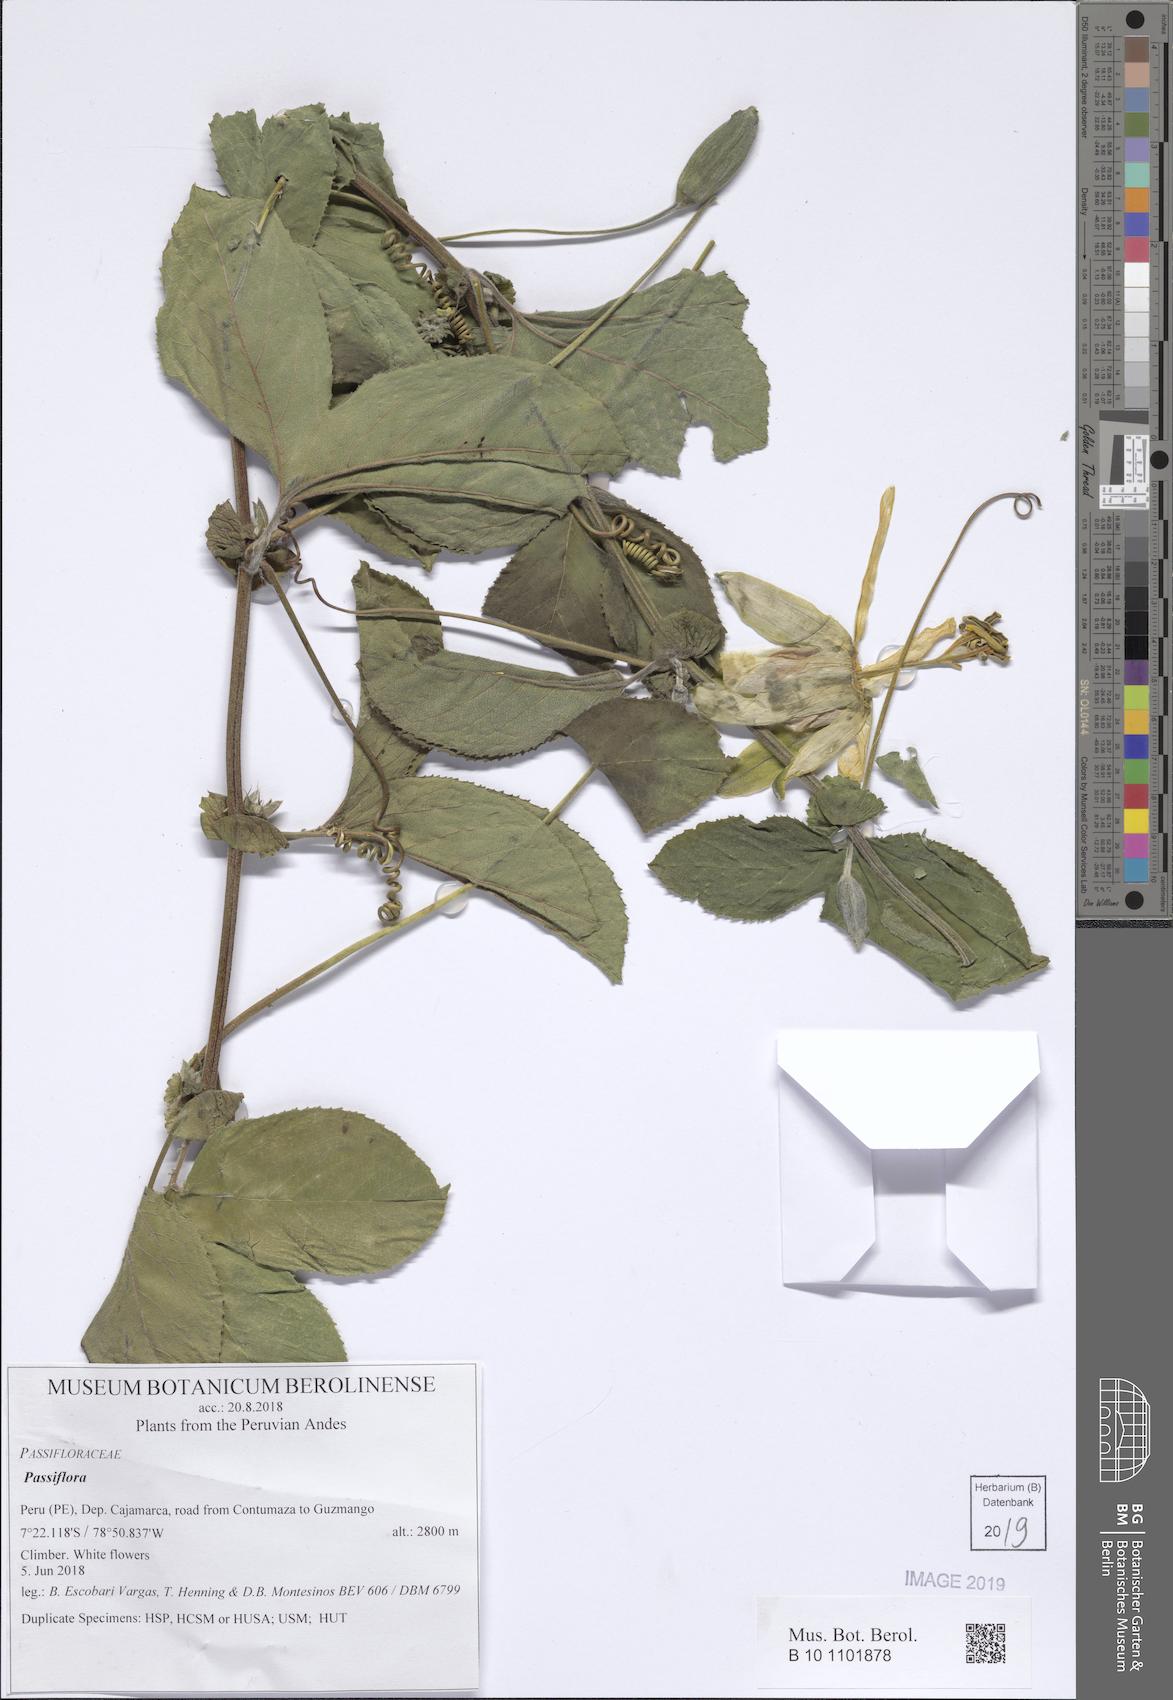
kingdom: Plantae
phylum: Tracheophyta
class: Magnoliopsida
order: Malpighiales
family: Passifloraceae
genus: Passiflora
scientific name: Passiflora
